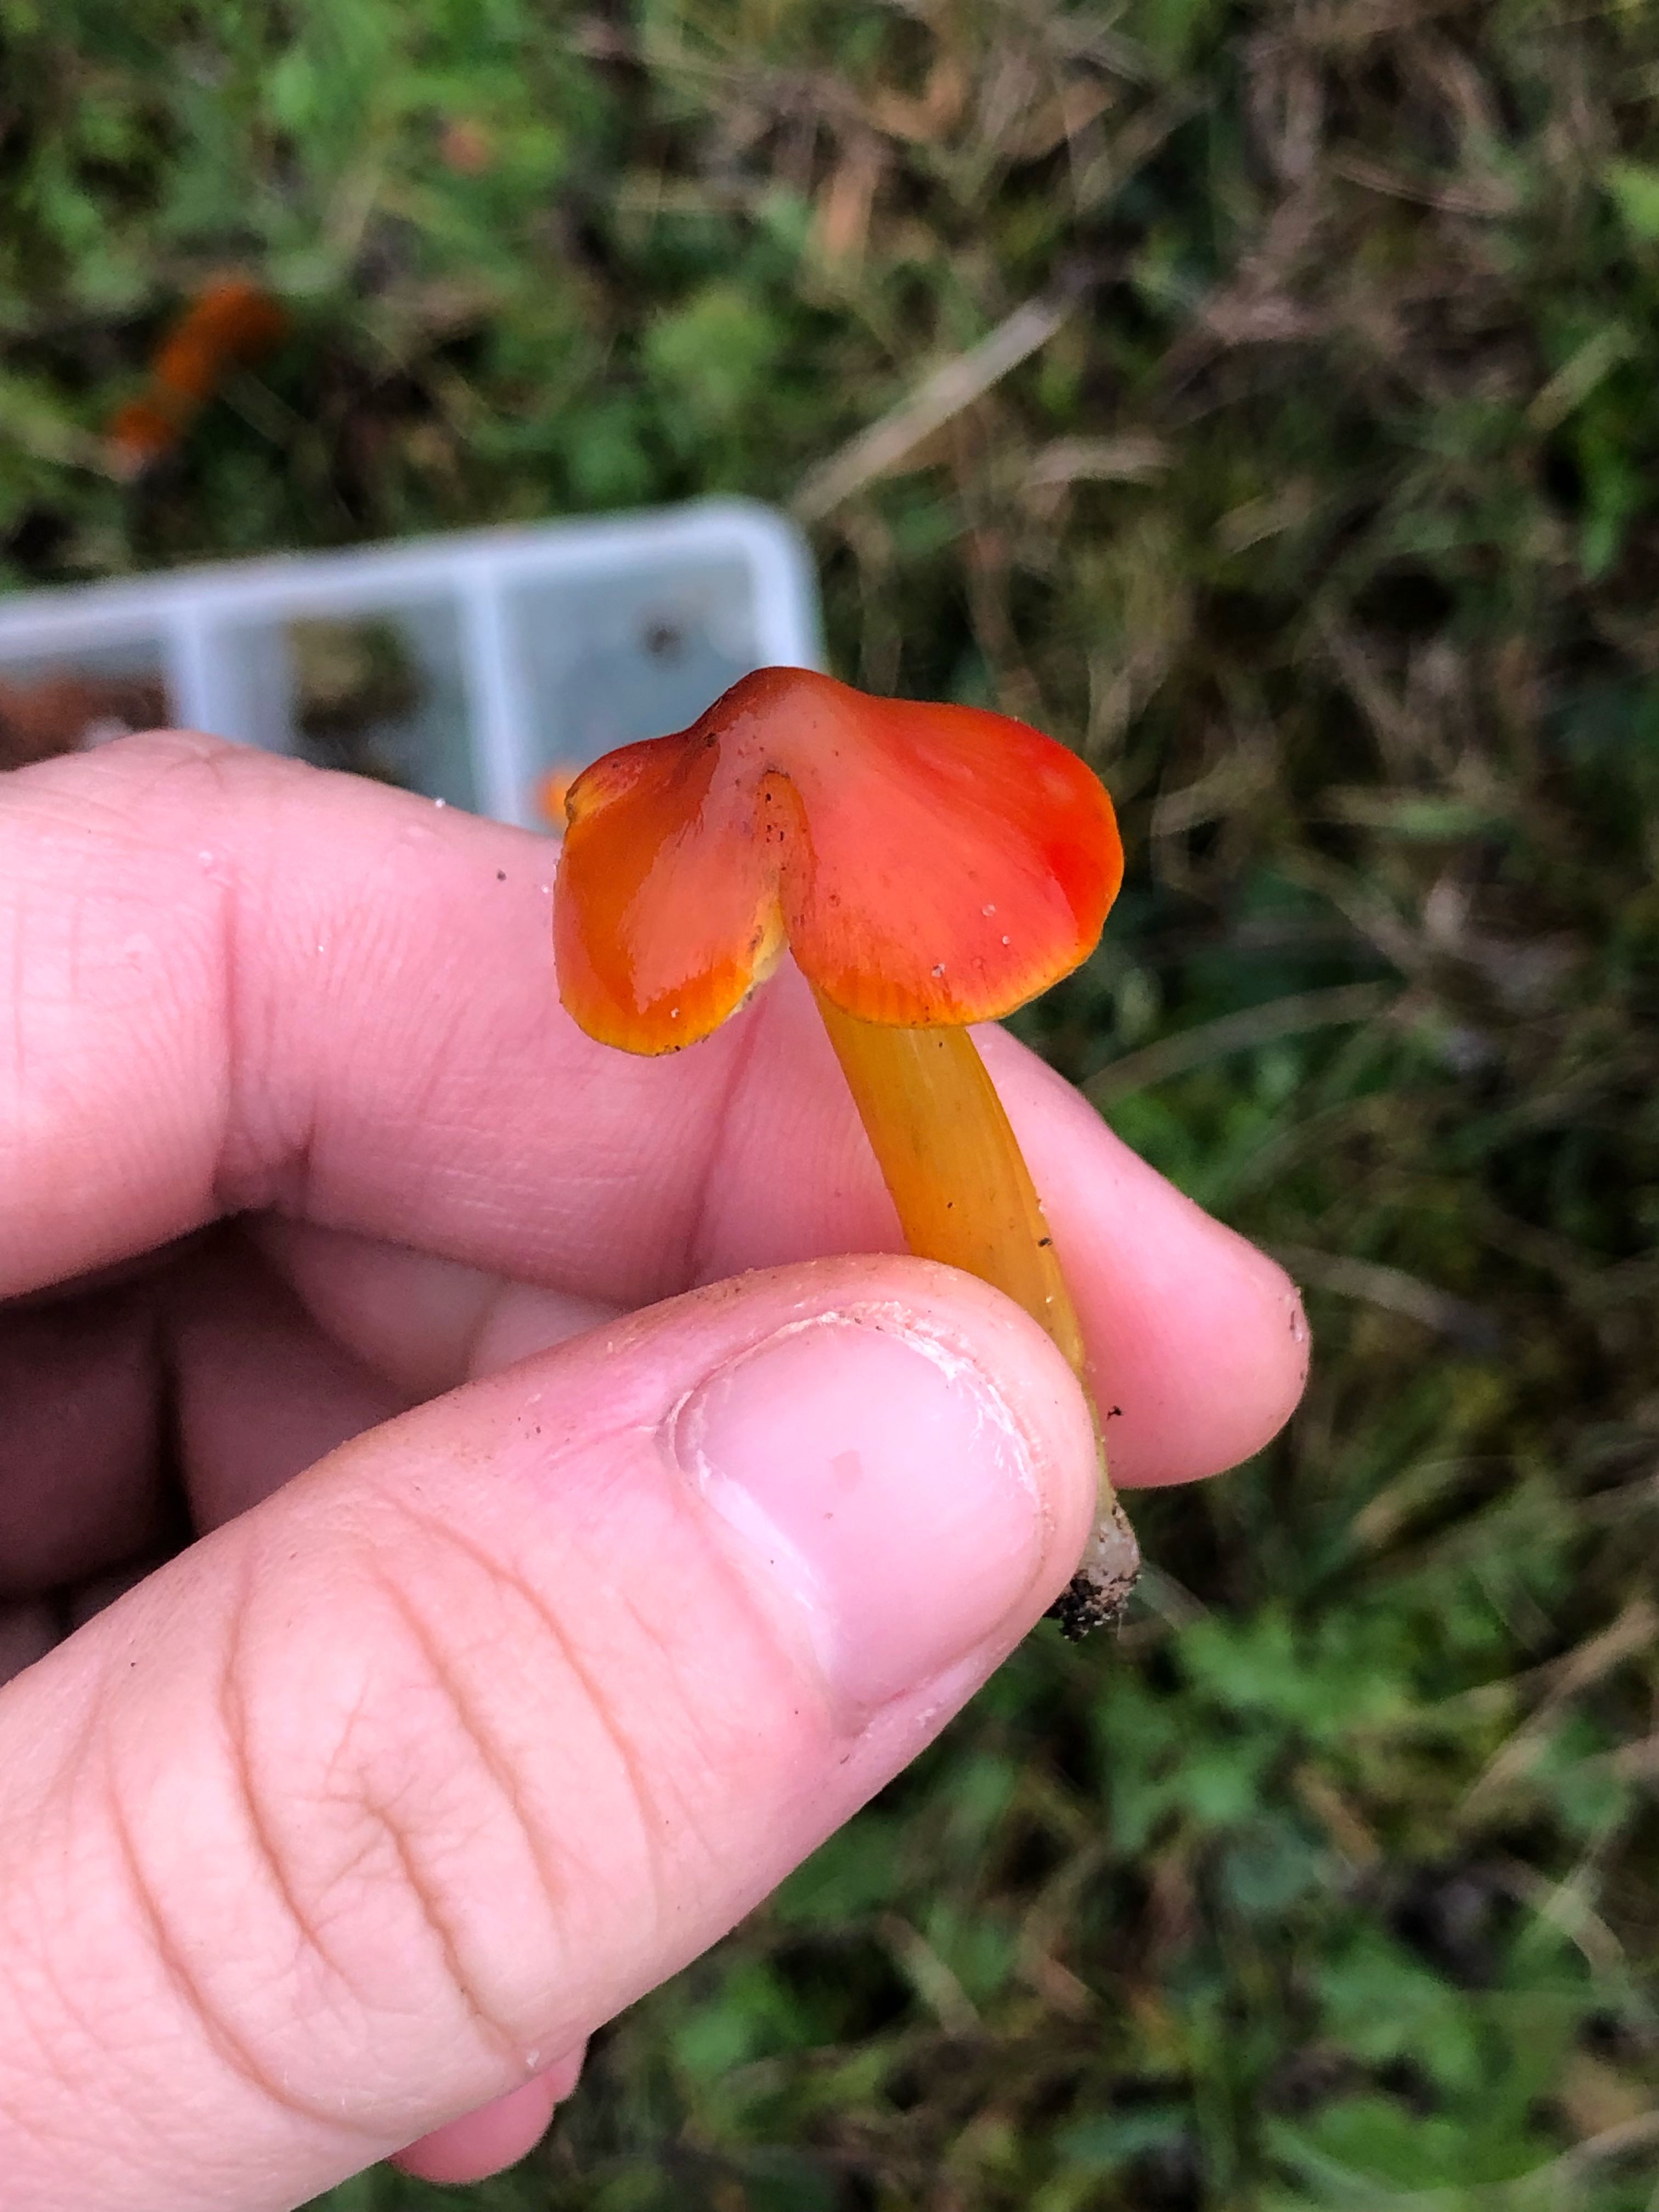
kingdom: Fungi
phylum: Basidiomycota
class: Agaricomycetes
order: Agaricales
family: Hygrophoraceae
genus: Hygrocybe
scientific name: Hygrocybe conica
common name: kegle-vokshat
